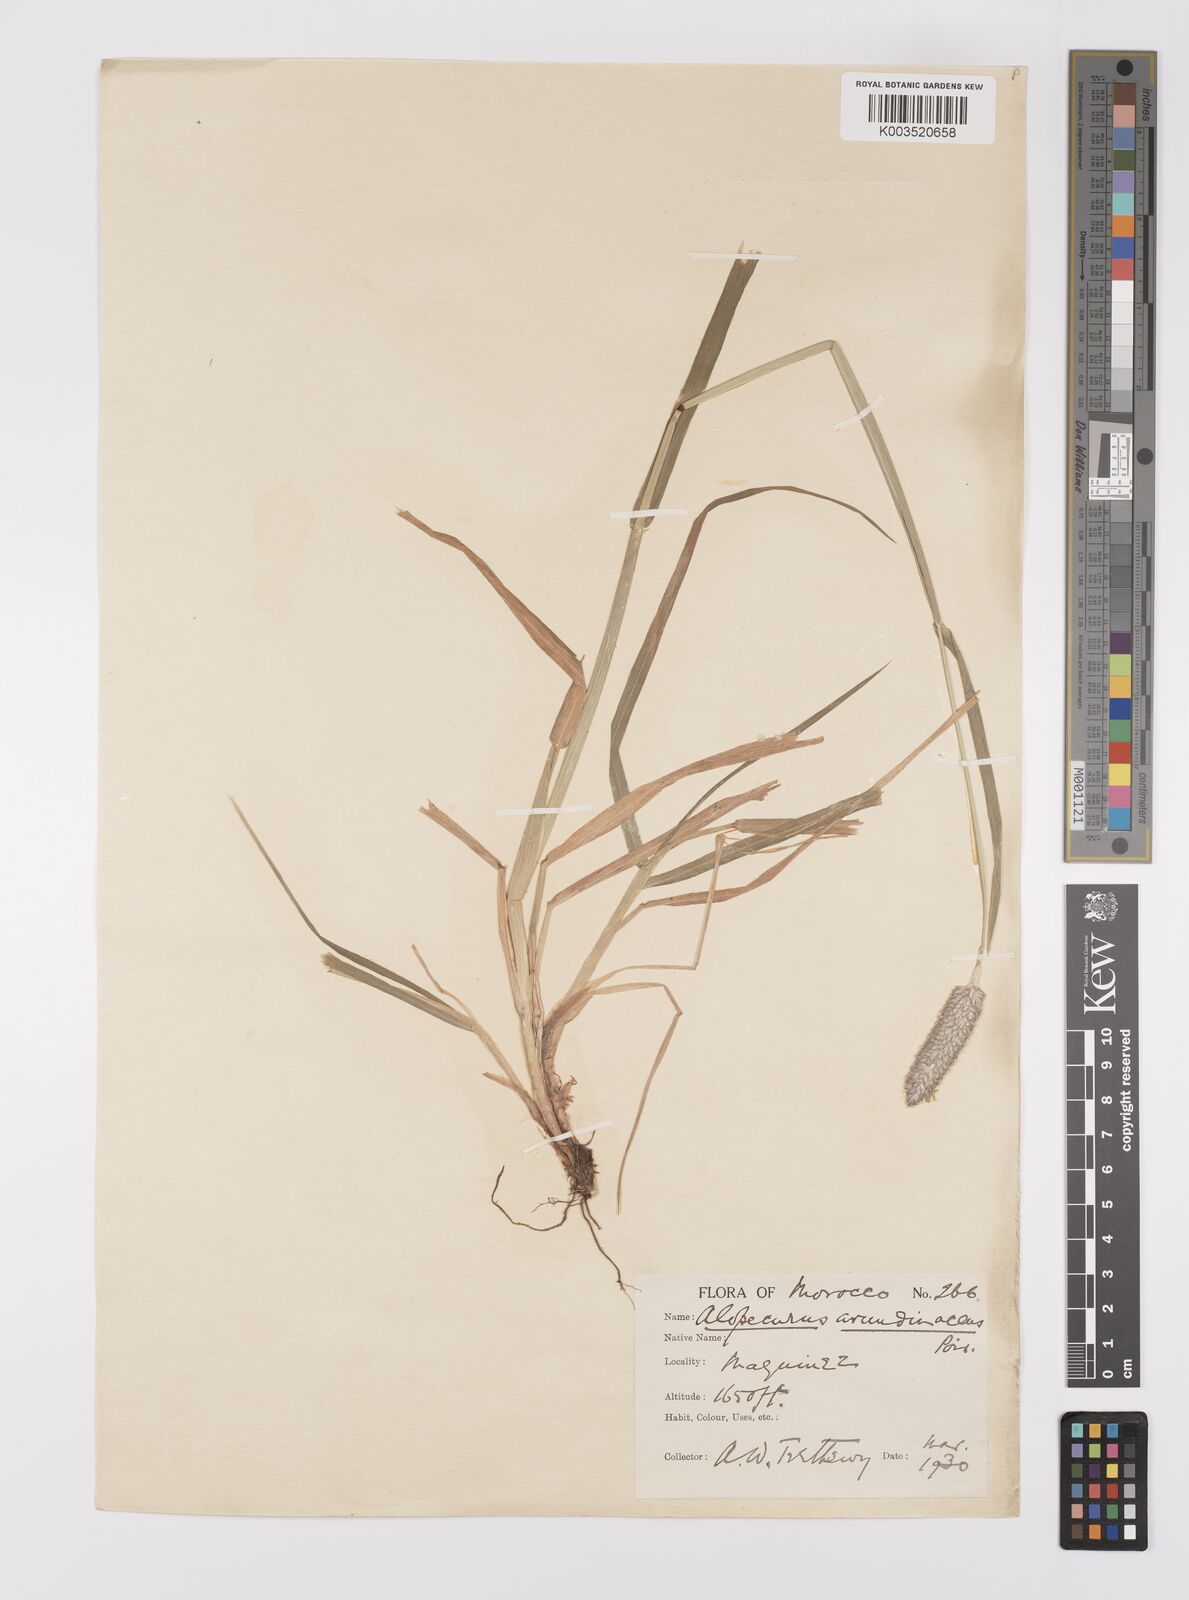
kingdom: Plantae
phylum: Tracheophyta
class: Liliopsida
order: Poales
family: Poaceae
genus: Alopecurus
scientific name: Alopecurus pratensis
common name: Meadow foxtail
